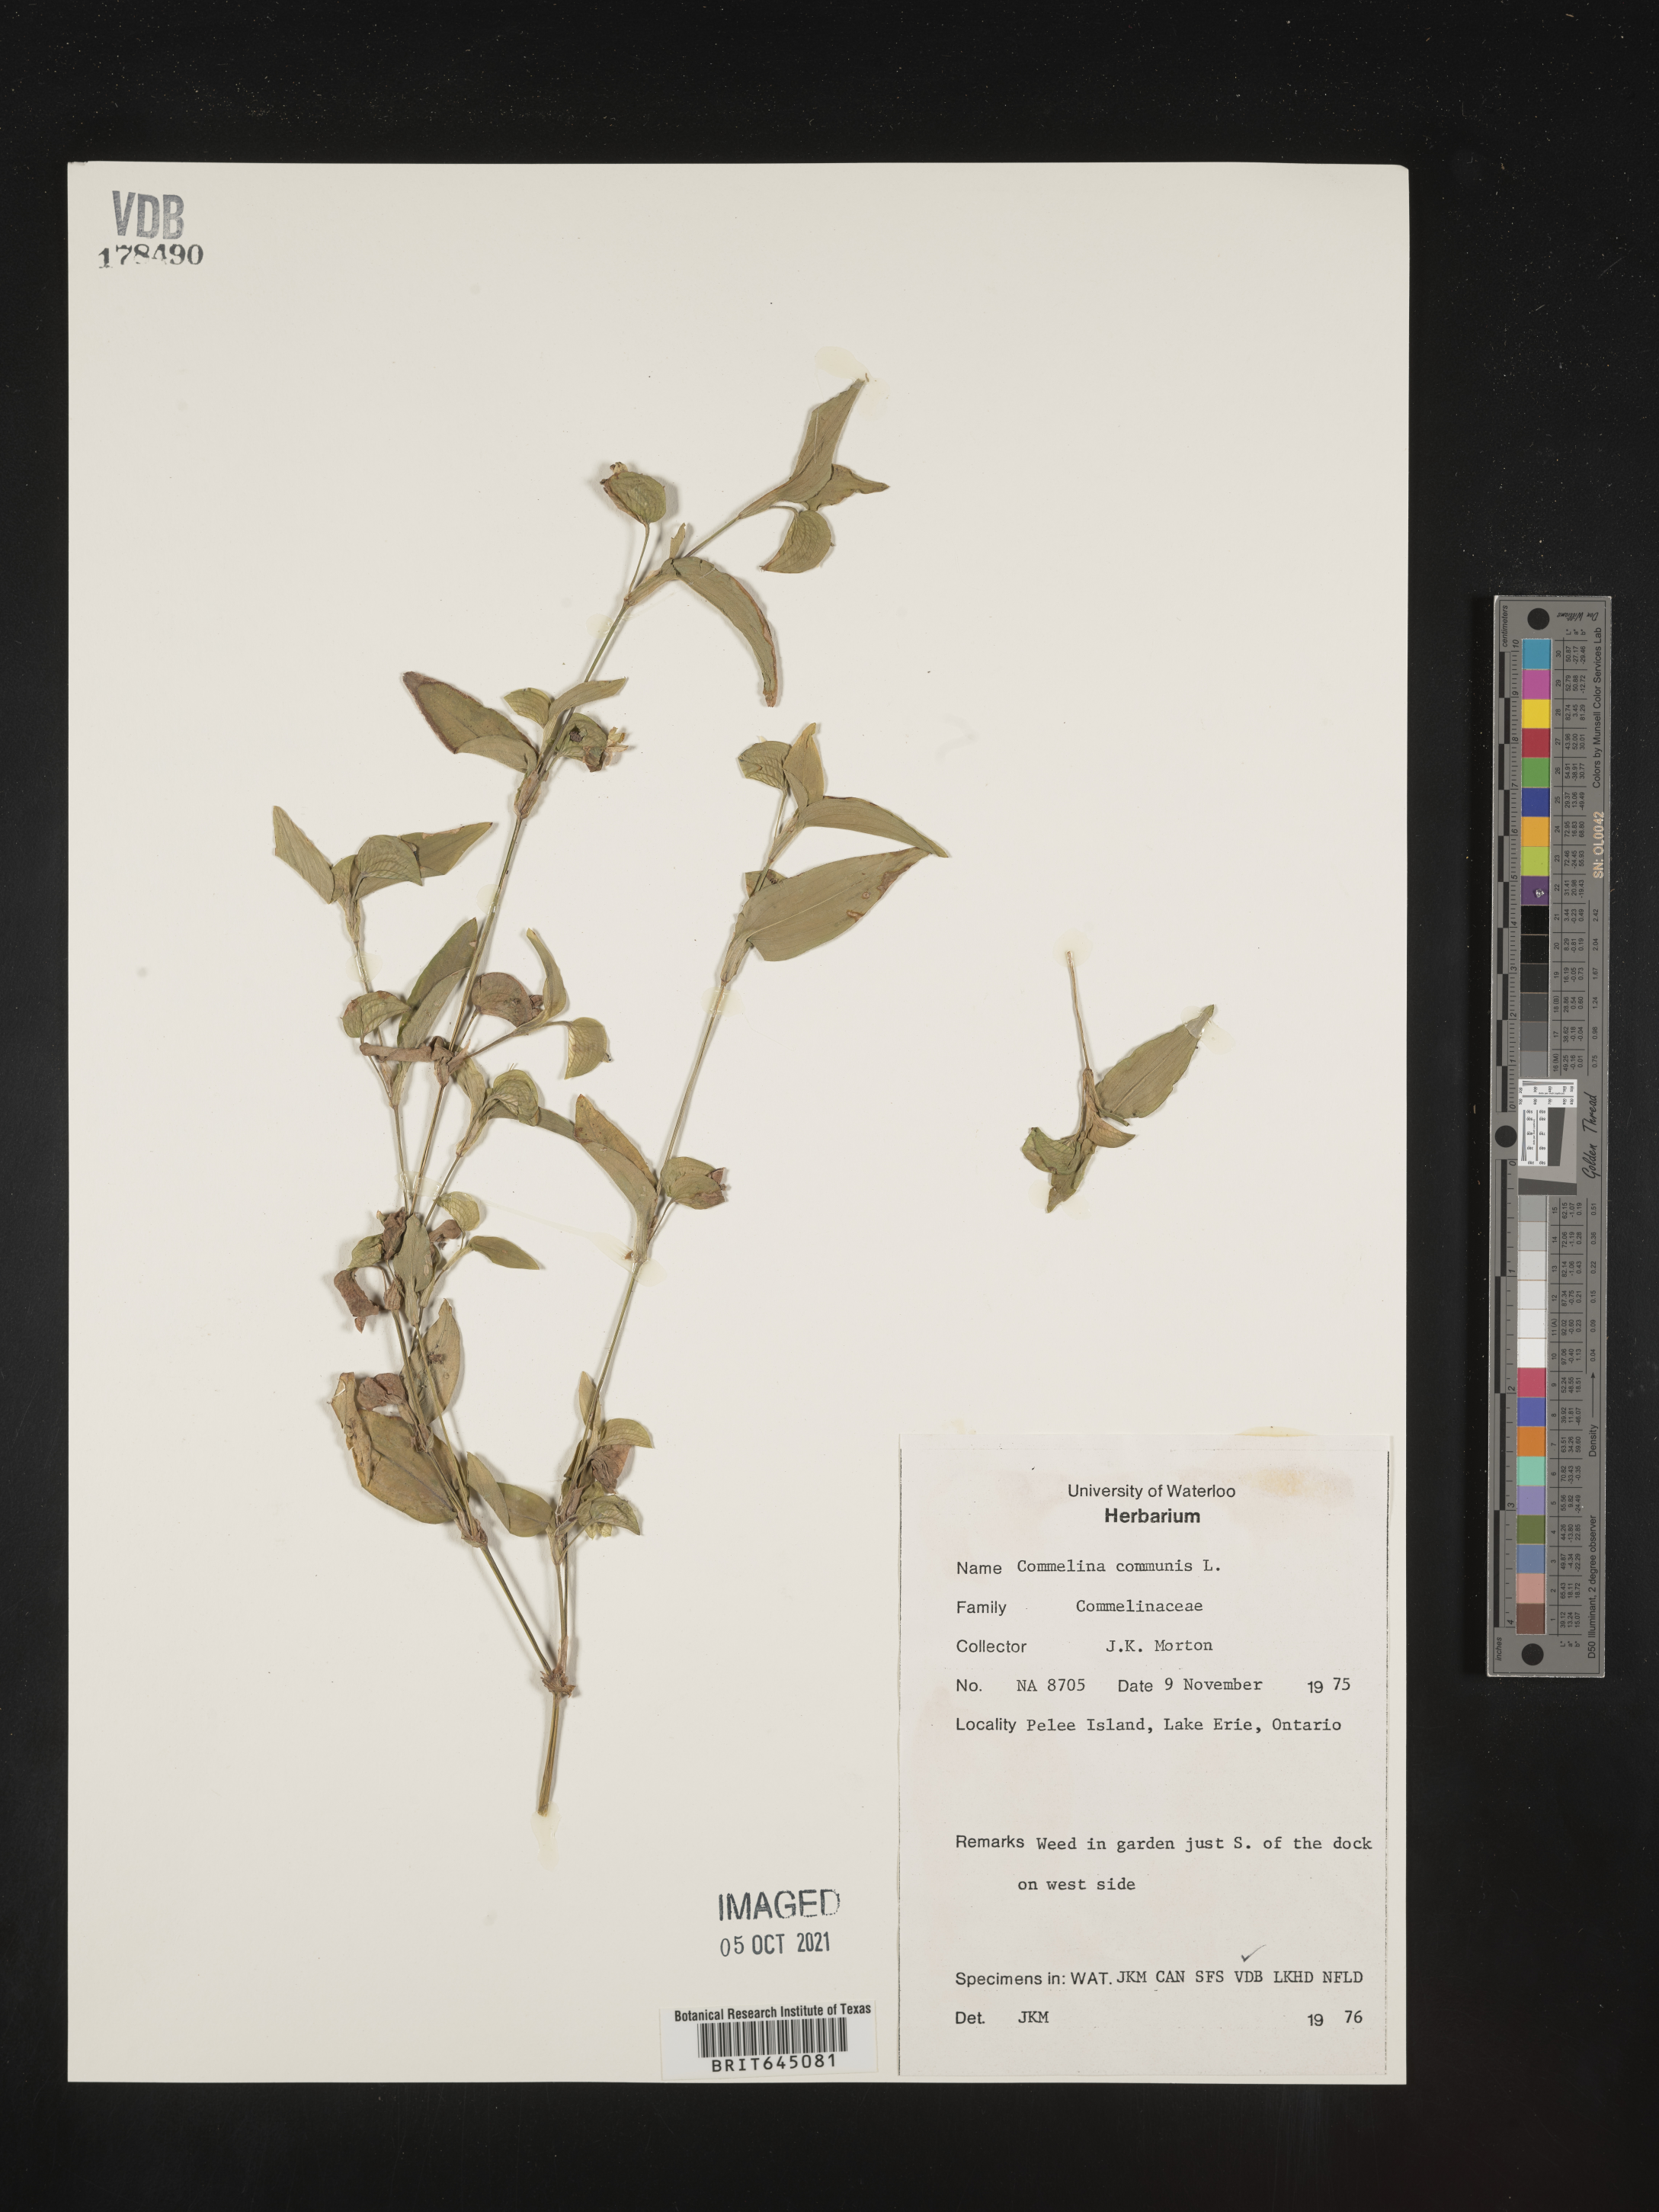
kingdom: Plantae
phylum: Tracheophyta
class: Liliopsida
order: Commelinales
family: Commelinaceae
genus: Commelina
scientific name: Commelina communis
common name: Asiatic dayflower
